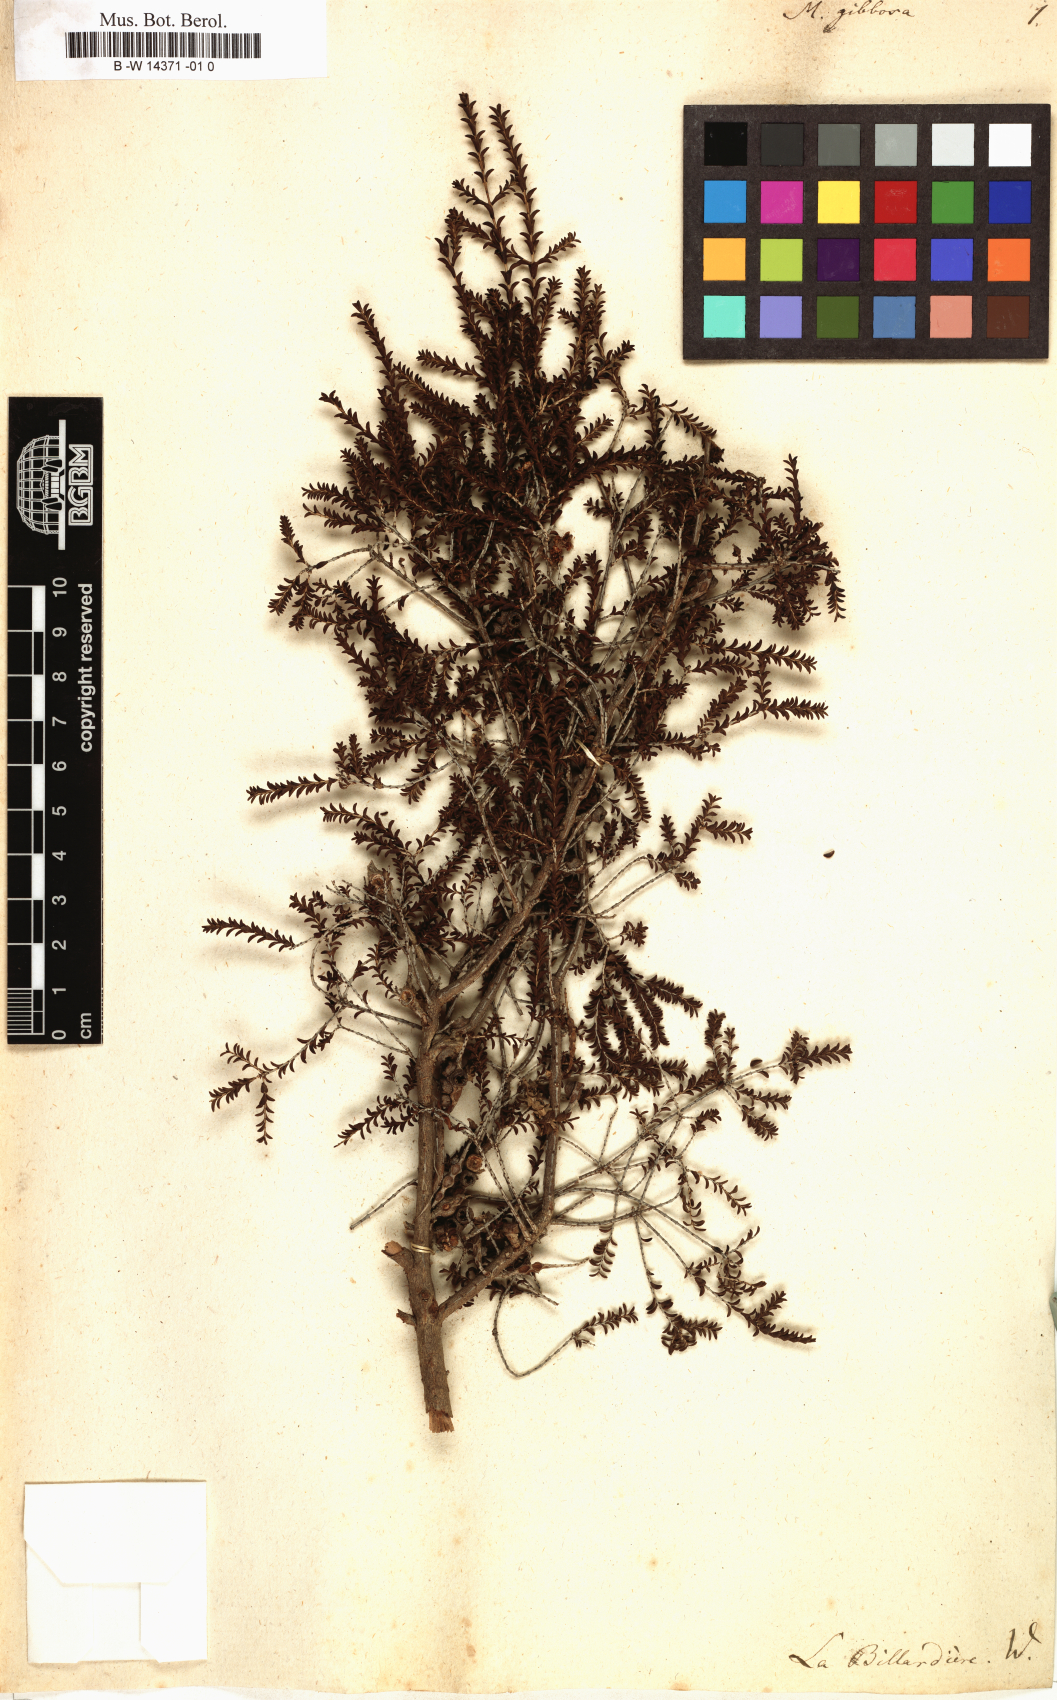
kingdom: Plantae
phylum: Tracheophyta
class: Magnoliopsida
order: Myrtales
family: Myrtaceae
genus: Melaleuca
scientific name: Melaleuca gibbosa
